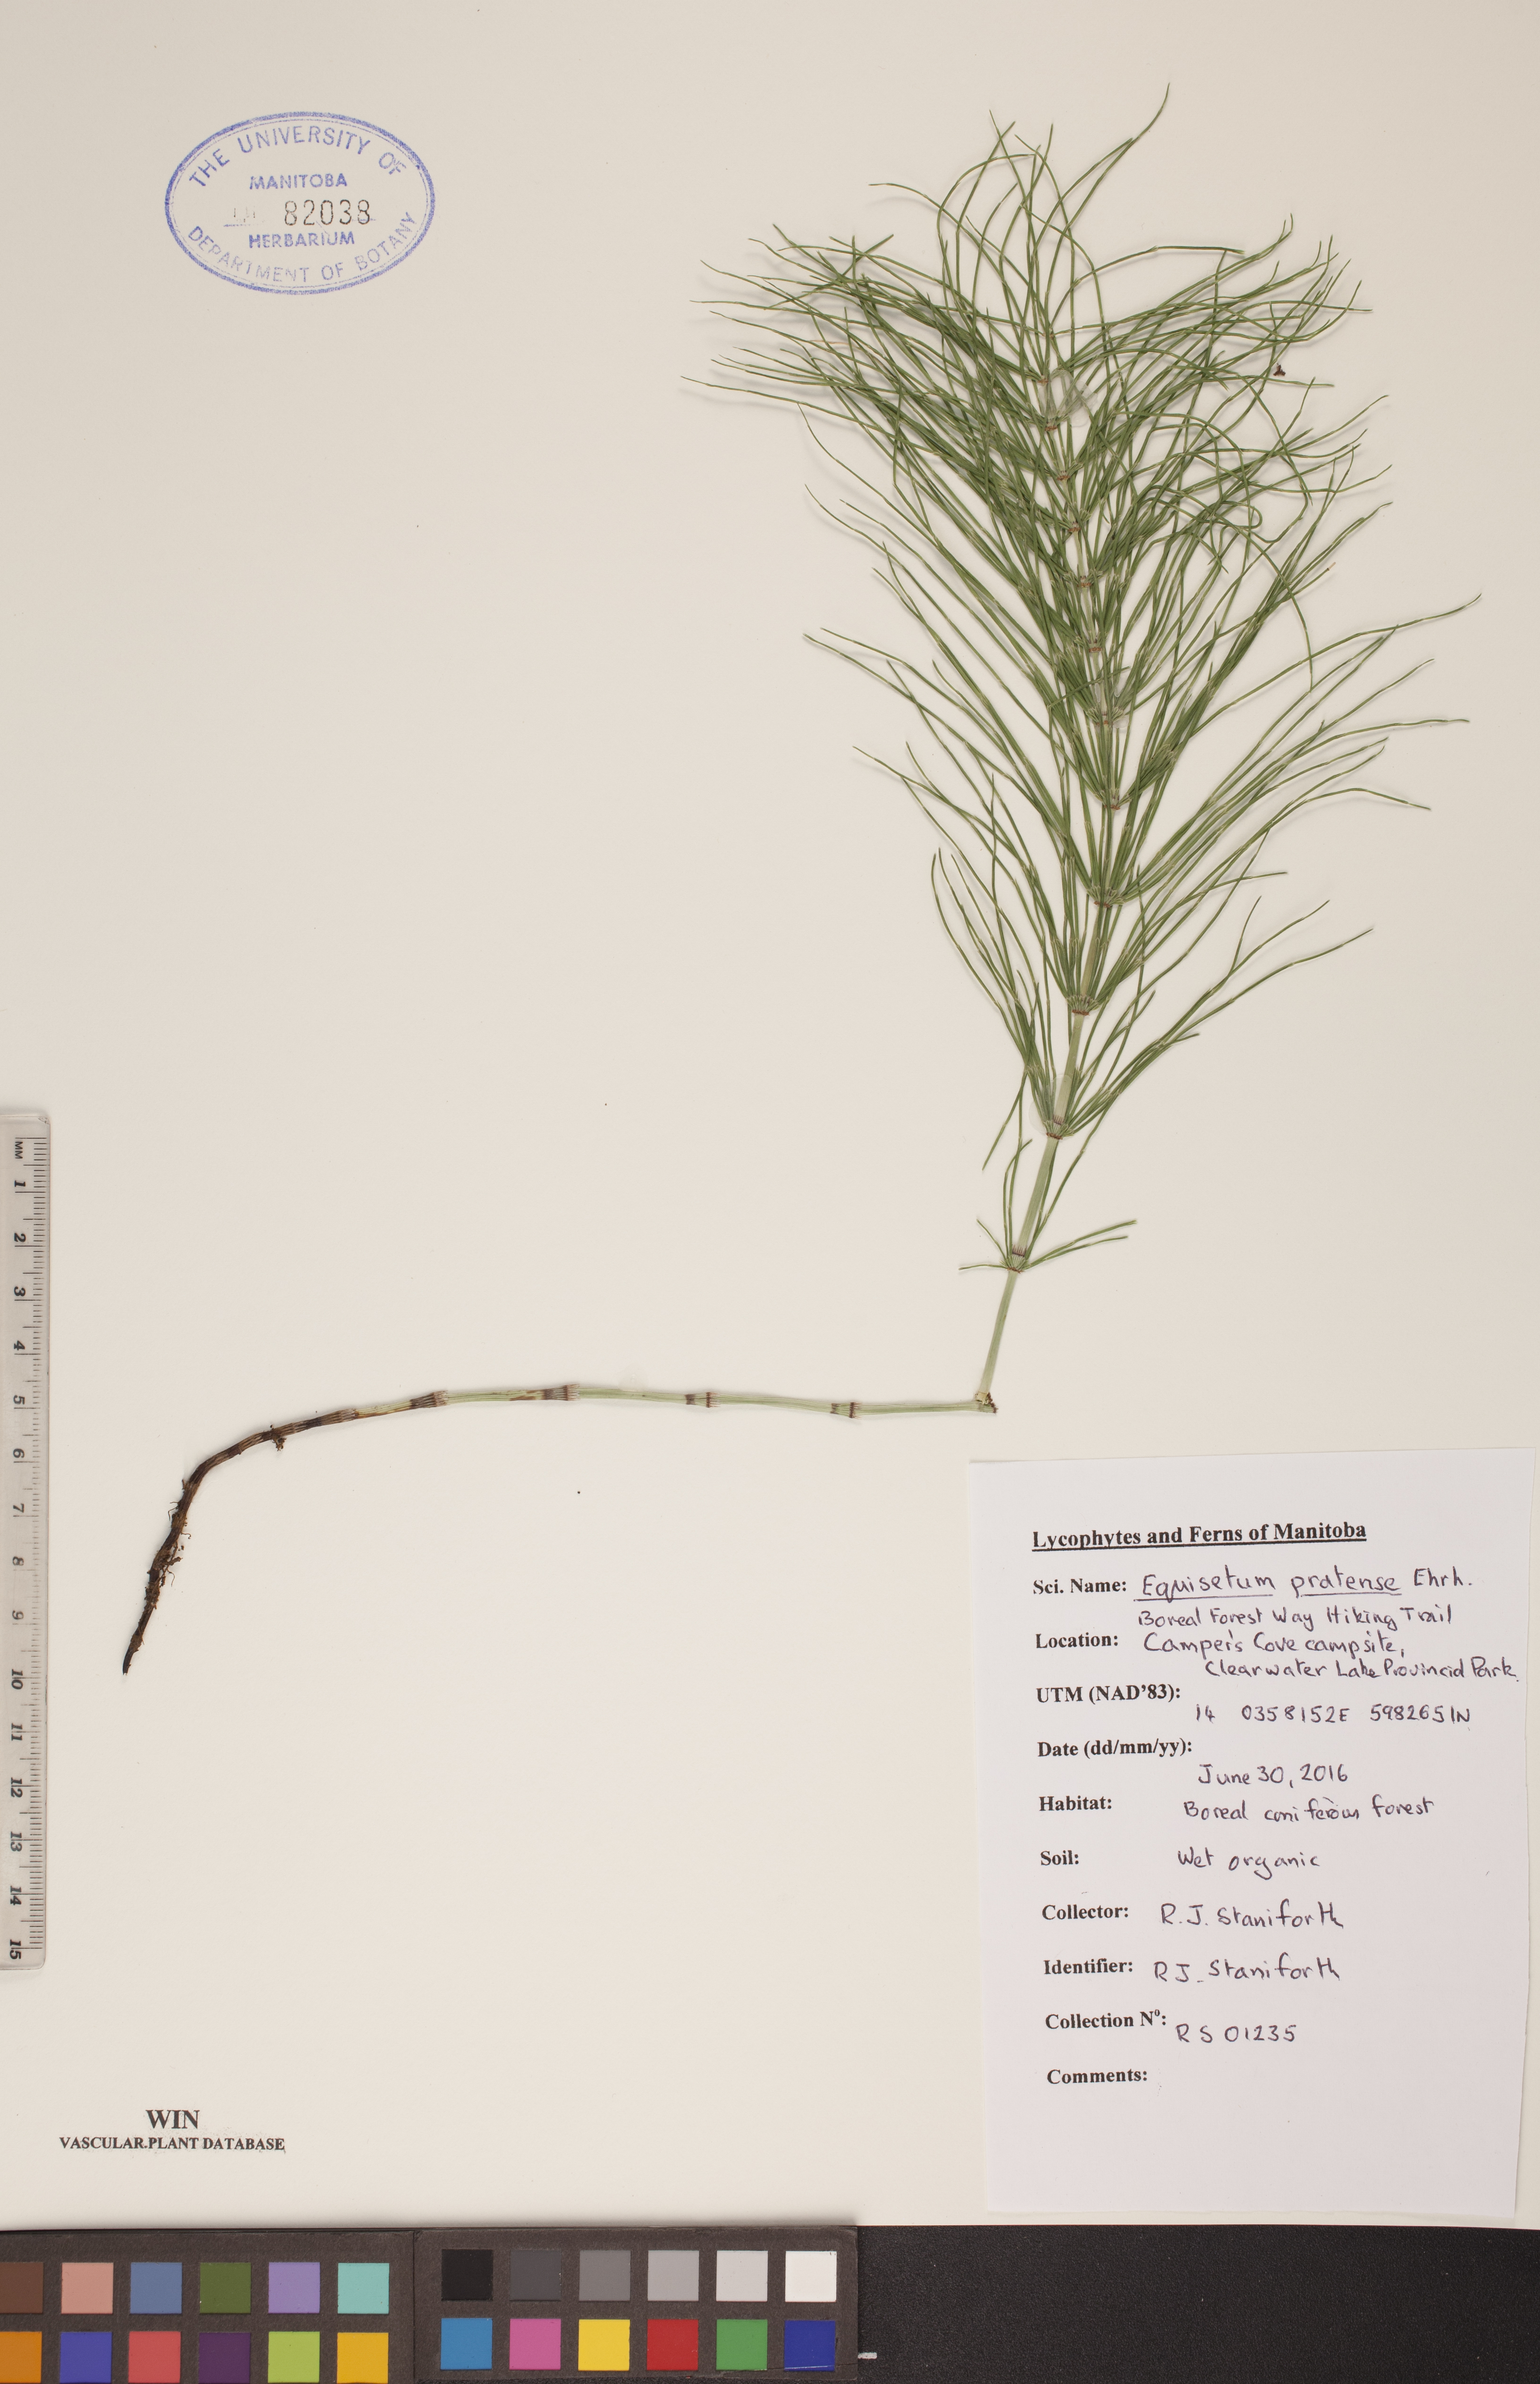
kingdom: Plantae
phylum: Tracheophyta
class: Polypodiopsida
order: Equisetales
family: Equisetaceae
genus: Equisetum
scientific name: Equisetum pratense
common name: Meadow horsetail
